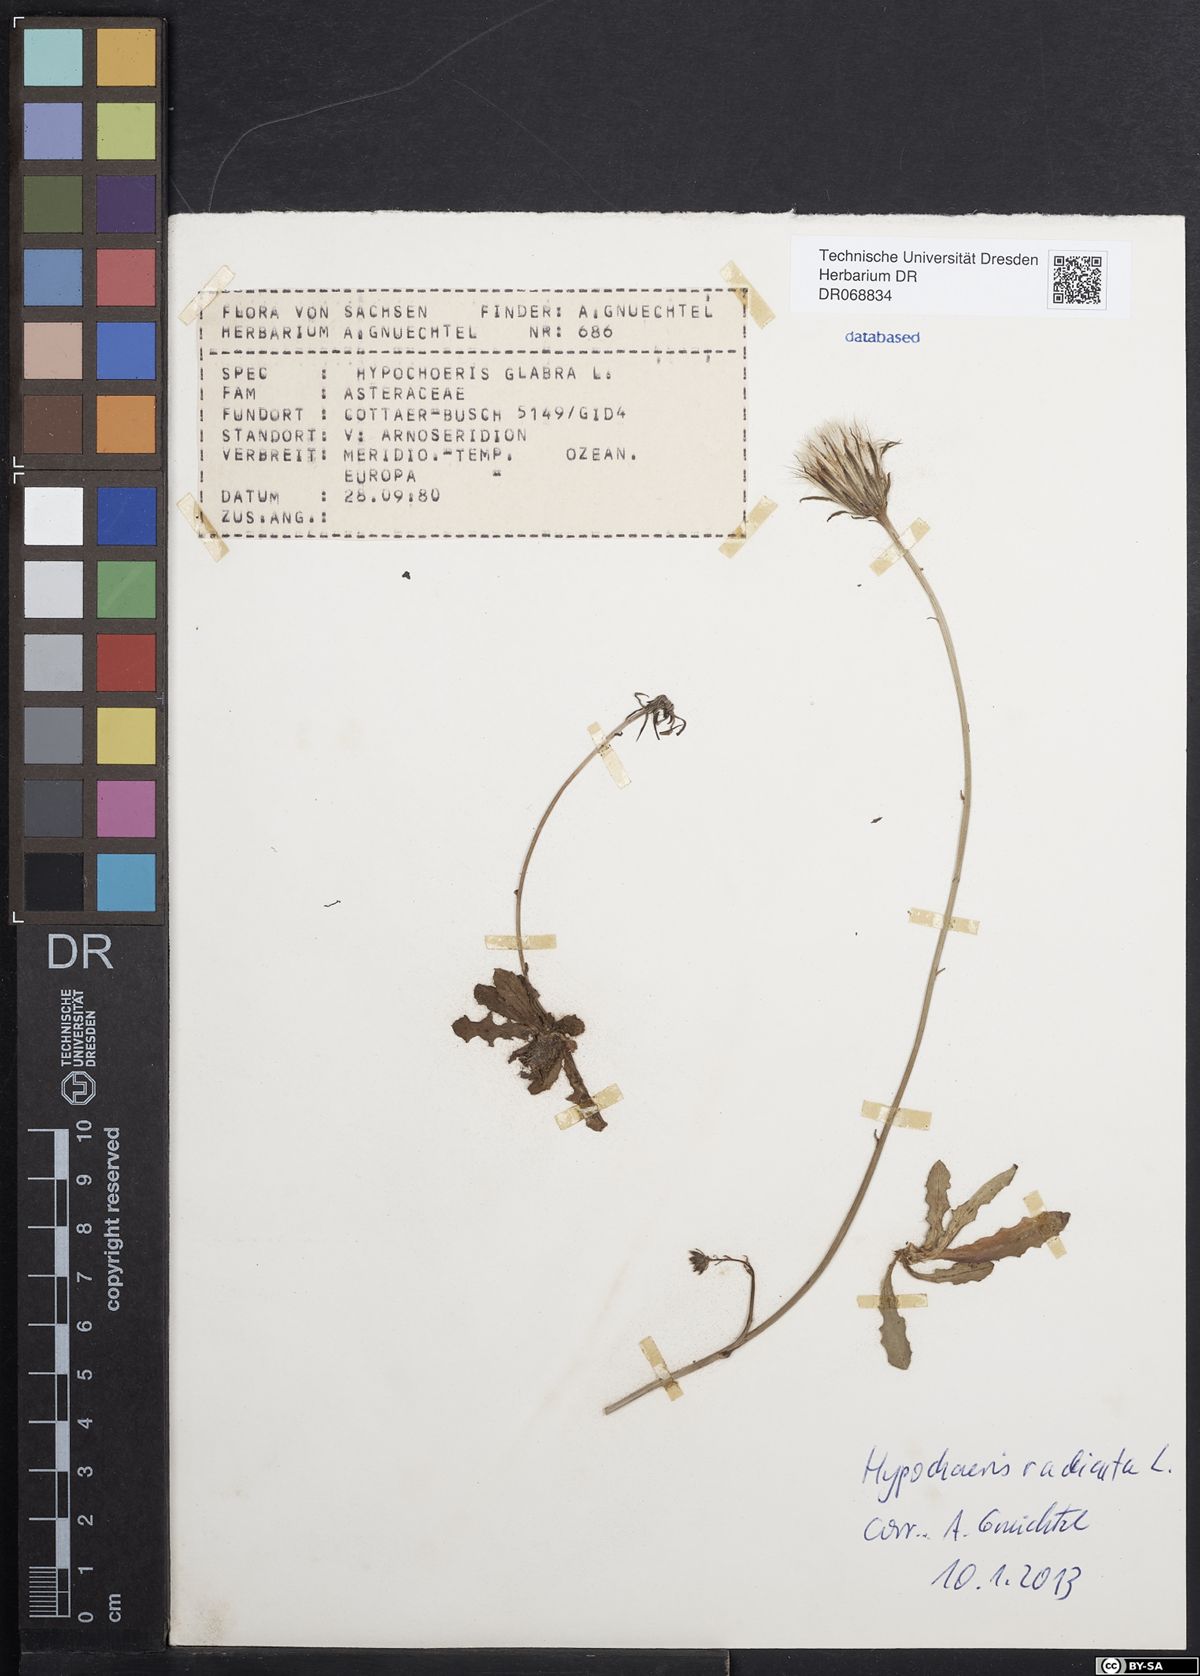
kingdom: Plantae
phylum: Tracheophyta
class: Magnoliopsida
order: Asterales
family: Asteraceae
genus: Hypochaeris
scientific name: Hypochaeris radicata
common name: Flatweed
